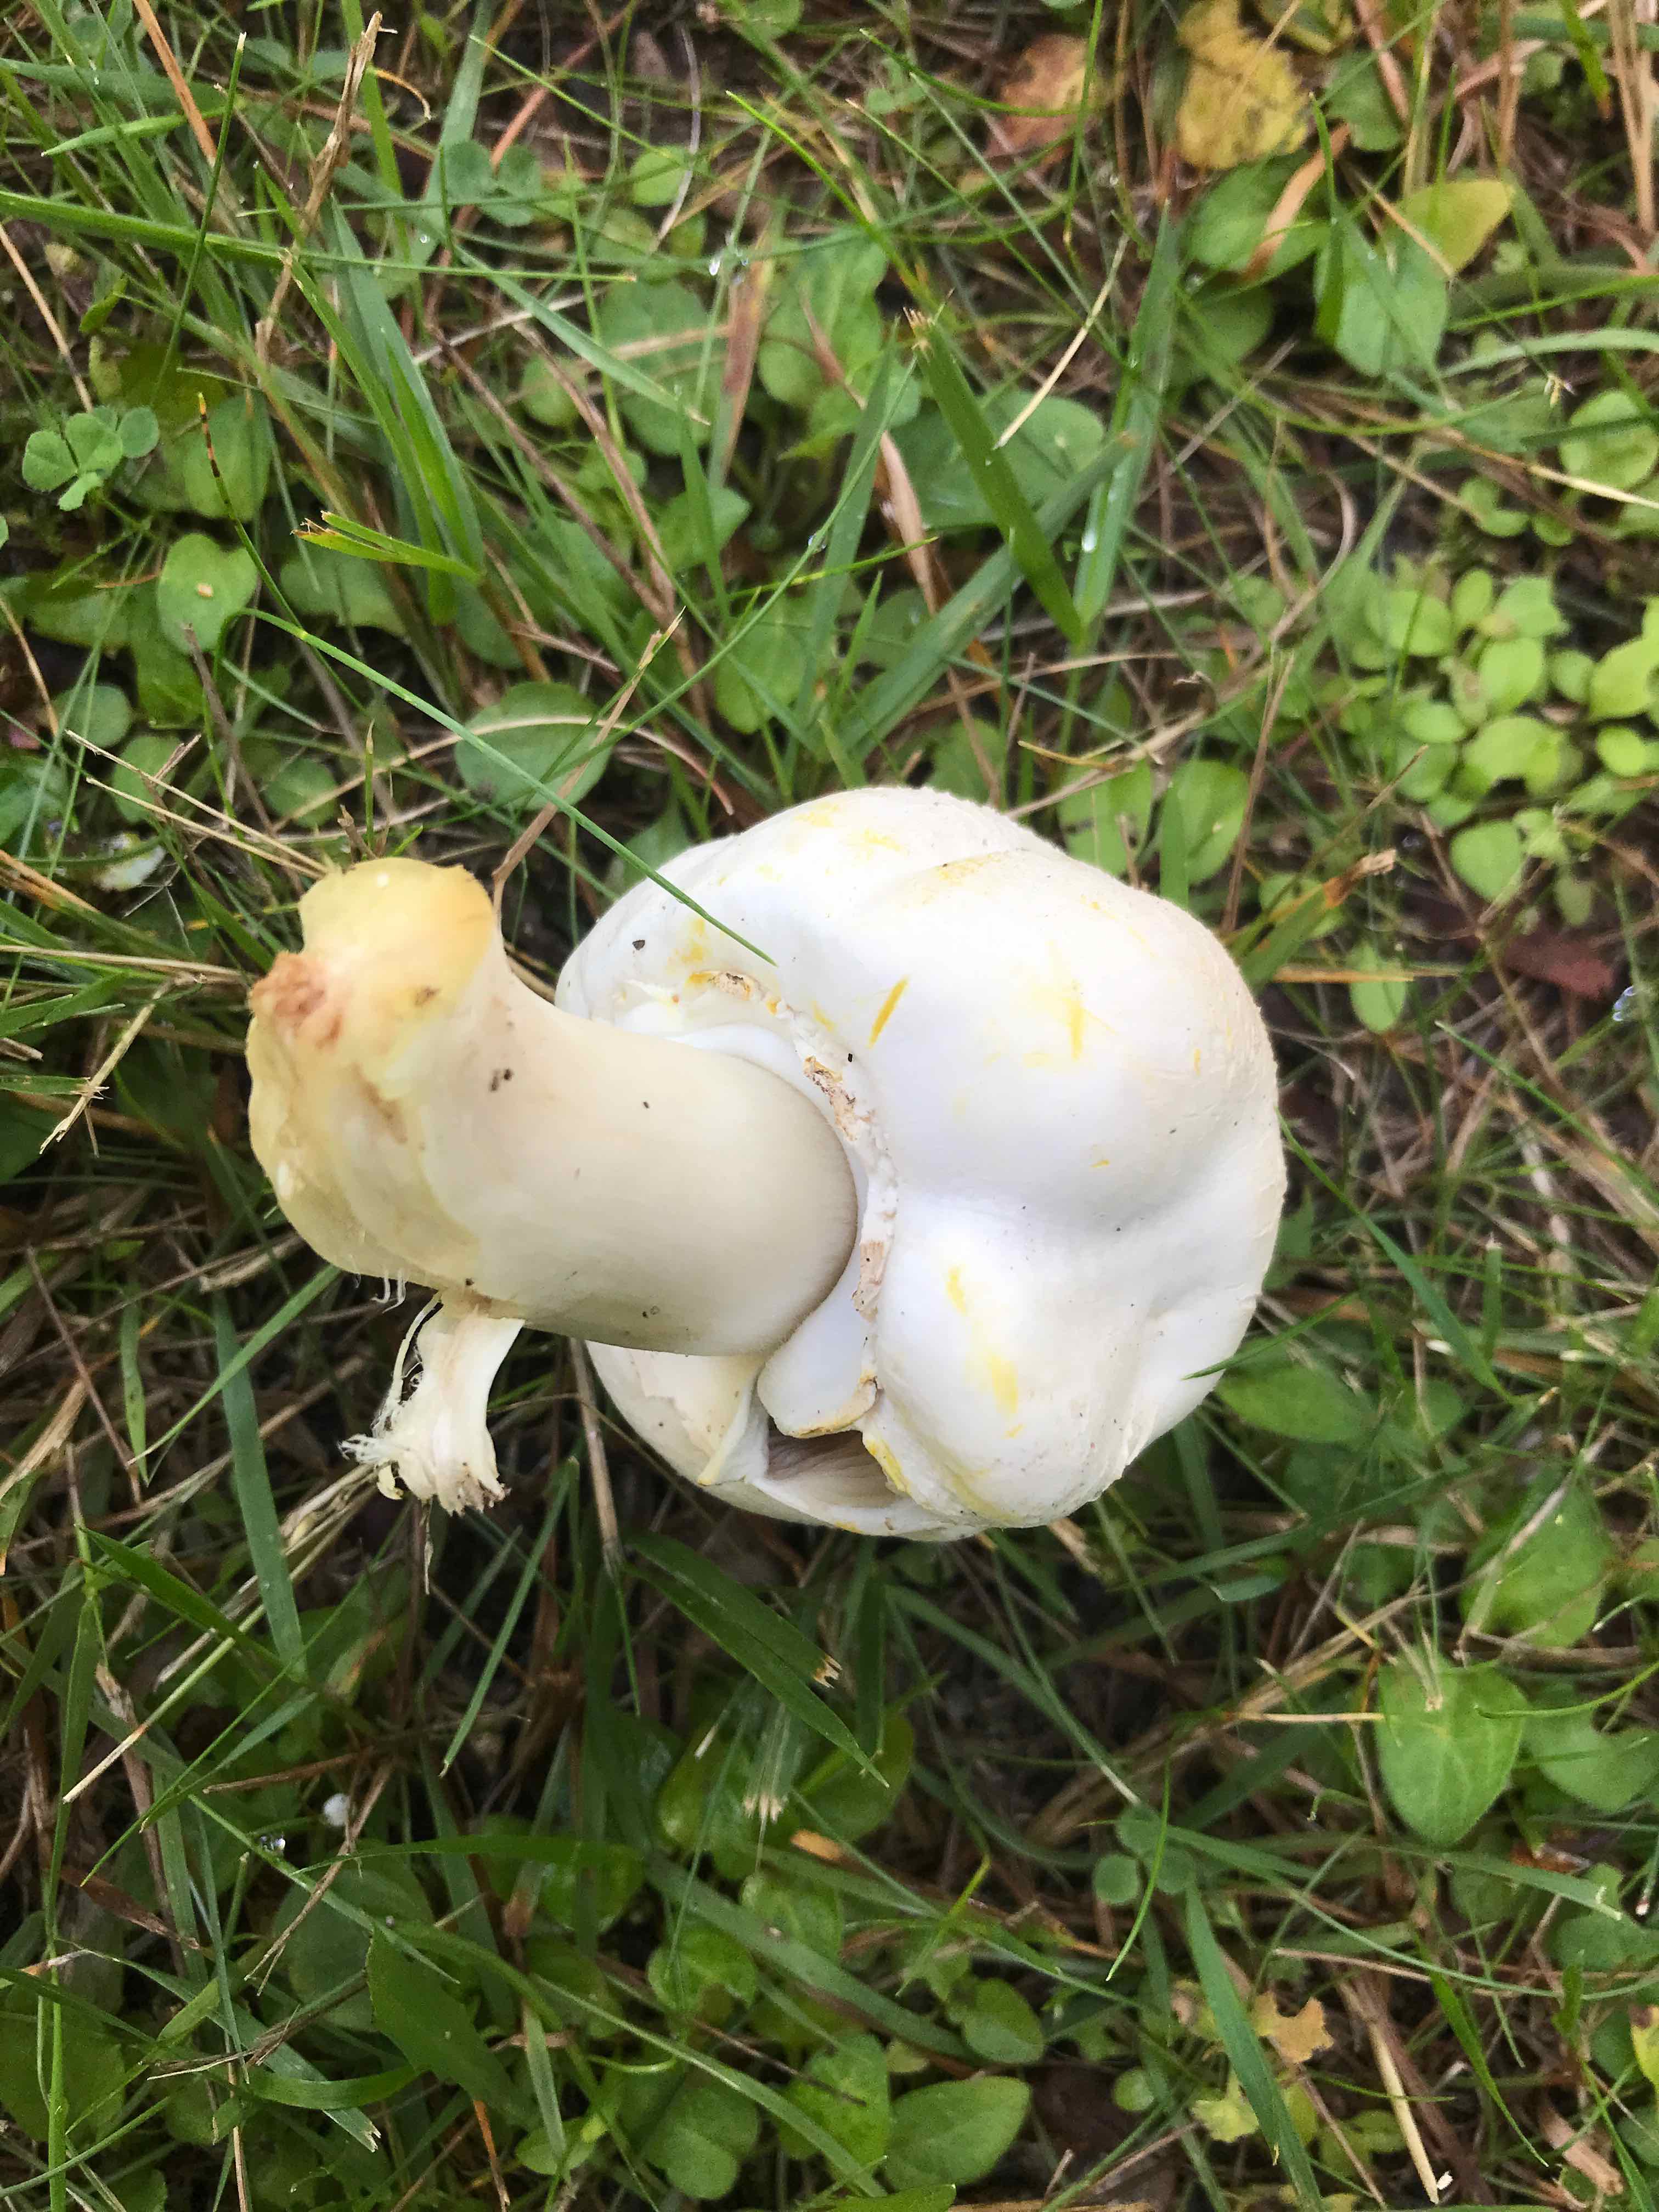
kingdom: Fungi
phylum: Basidiomycota
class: Agaricomycetes
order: Agaricales
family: Agaricaceae
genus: Agaricus
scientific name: Agaricus xanthodermus
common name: karbol-champignon
